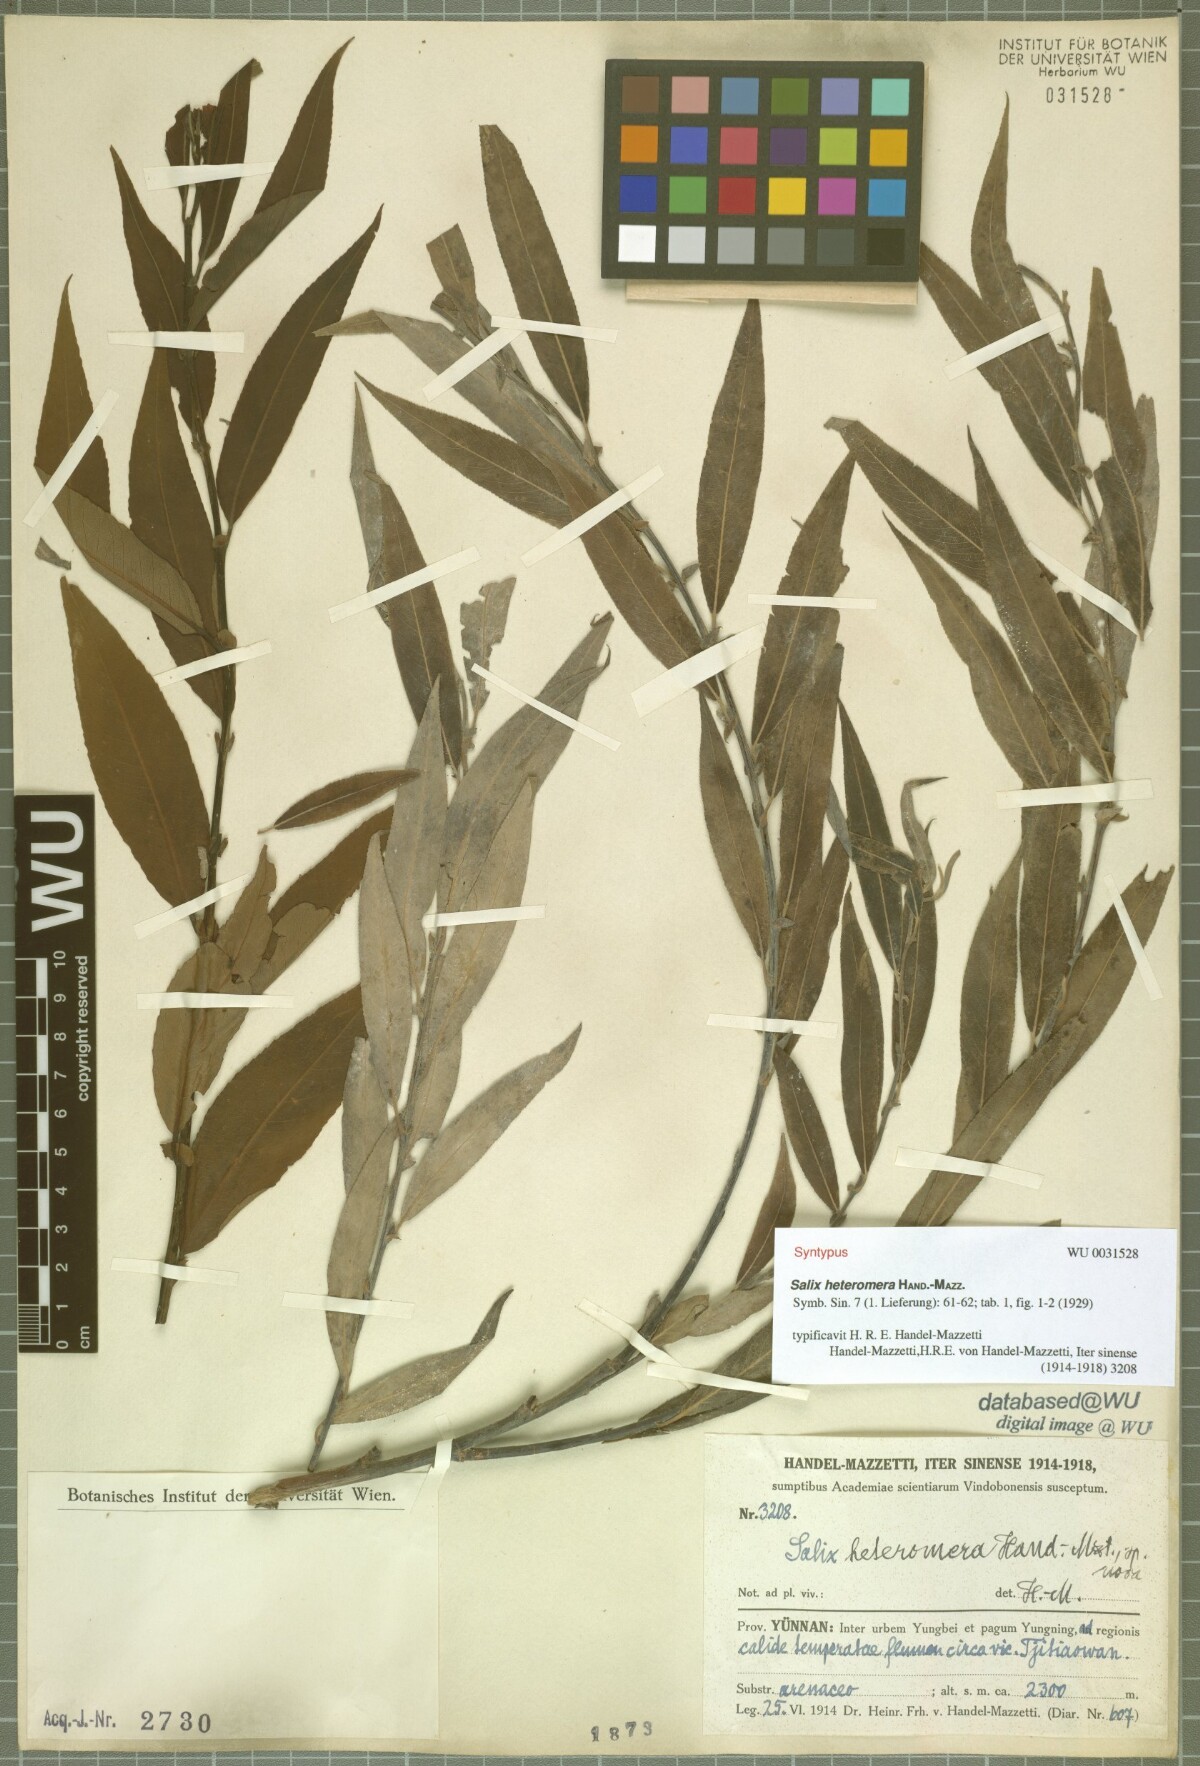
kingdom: Plantae
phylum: Tracheophyta
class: Magnoliopsida
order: Malpighiales
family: Salicaceae
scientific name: Salicaceae
